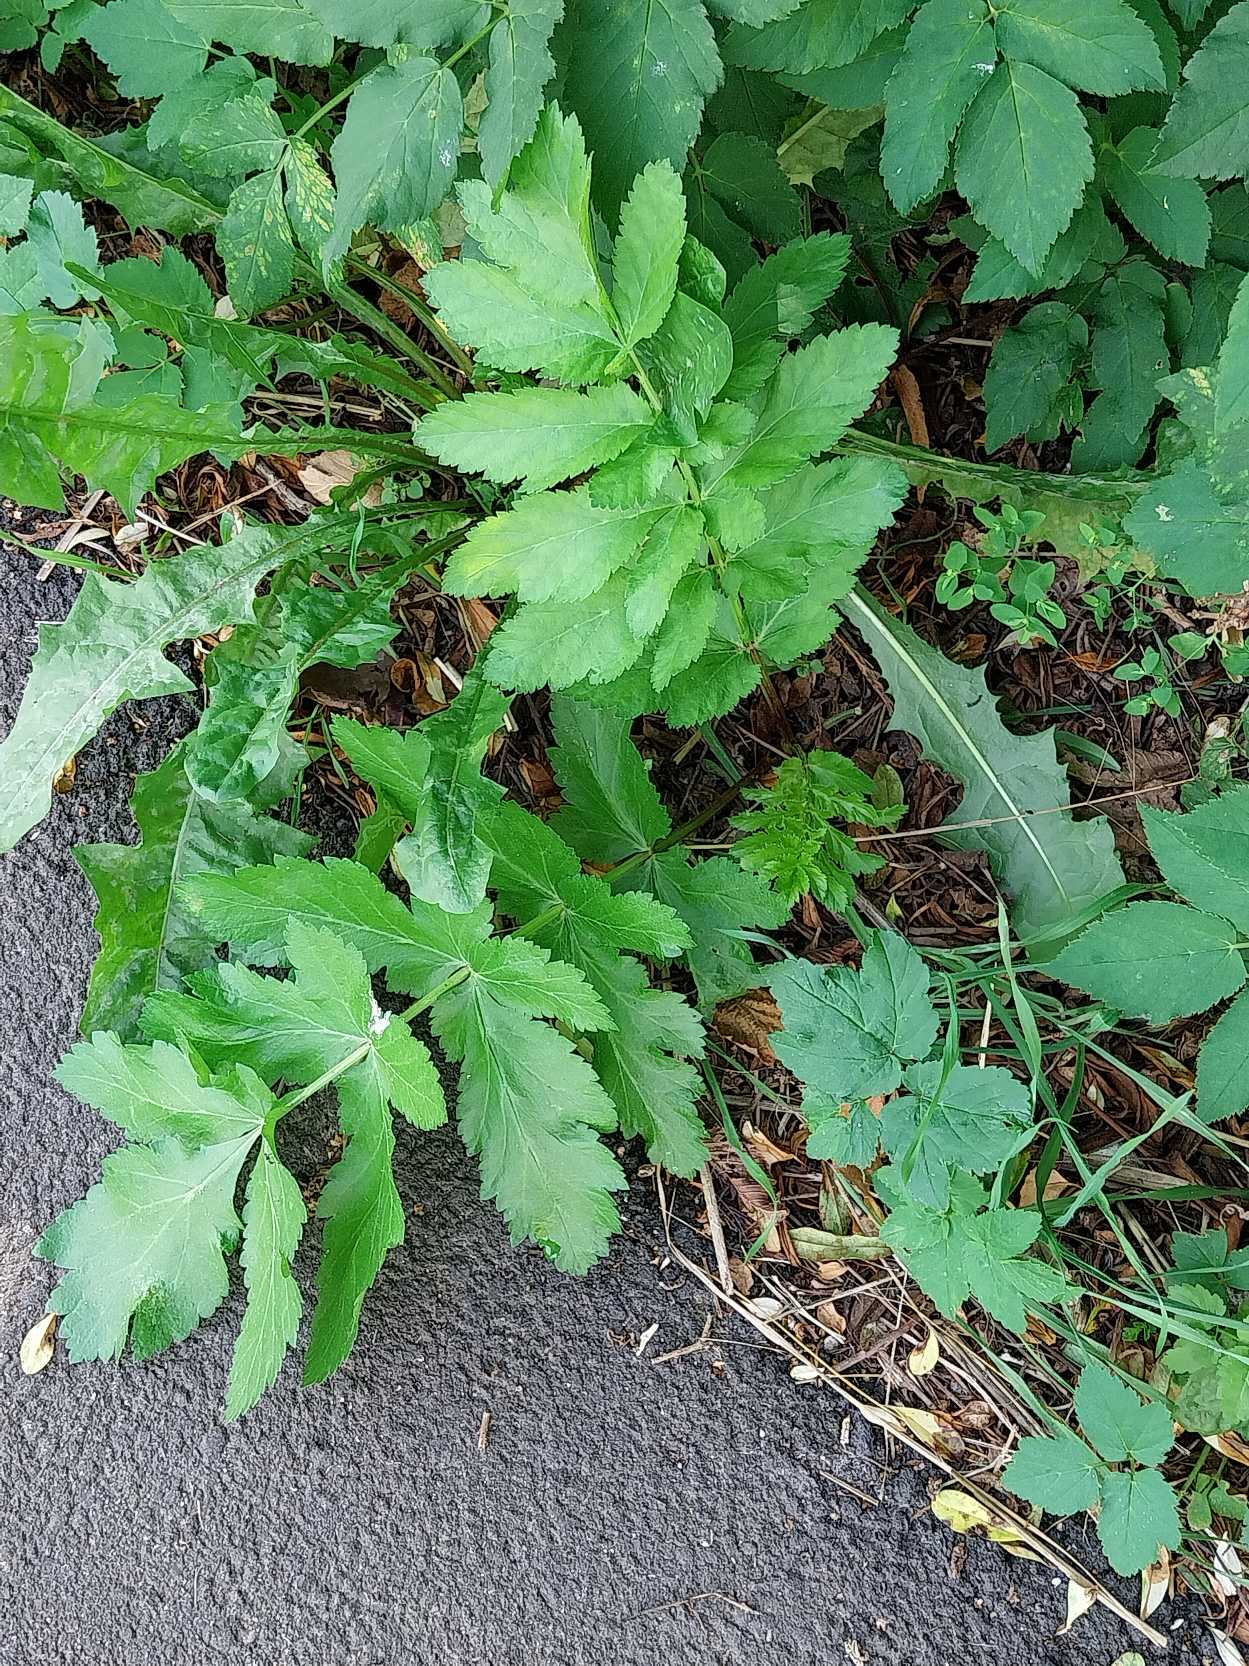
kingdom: Plantae
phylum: Tracheophyta
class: Magnoliopsida
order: Apiales
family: Apiaceae
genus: Pastinaca
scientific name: Pastinaca sativa
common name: Pastinak
